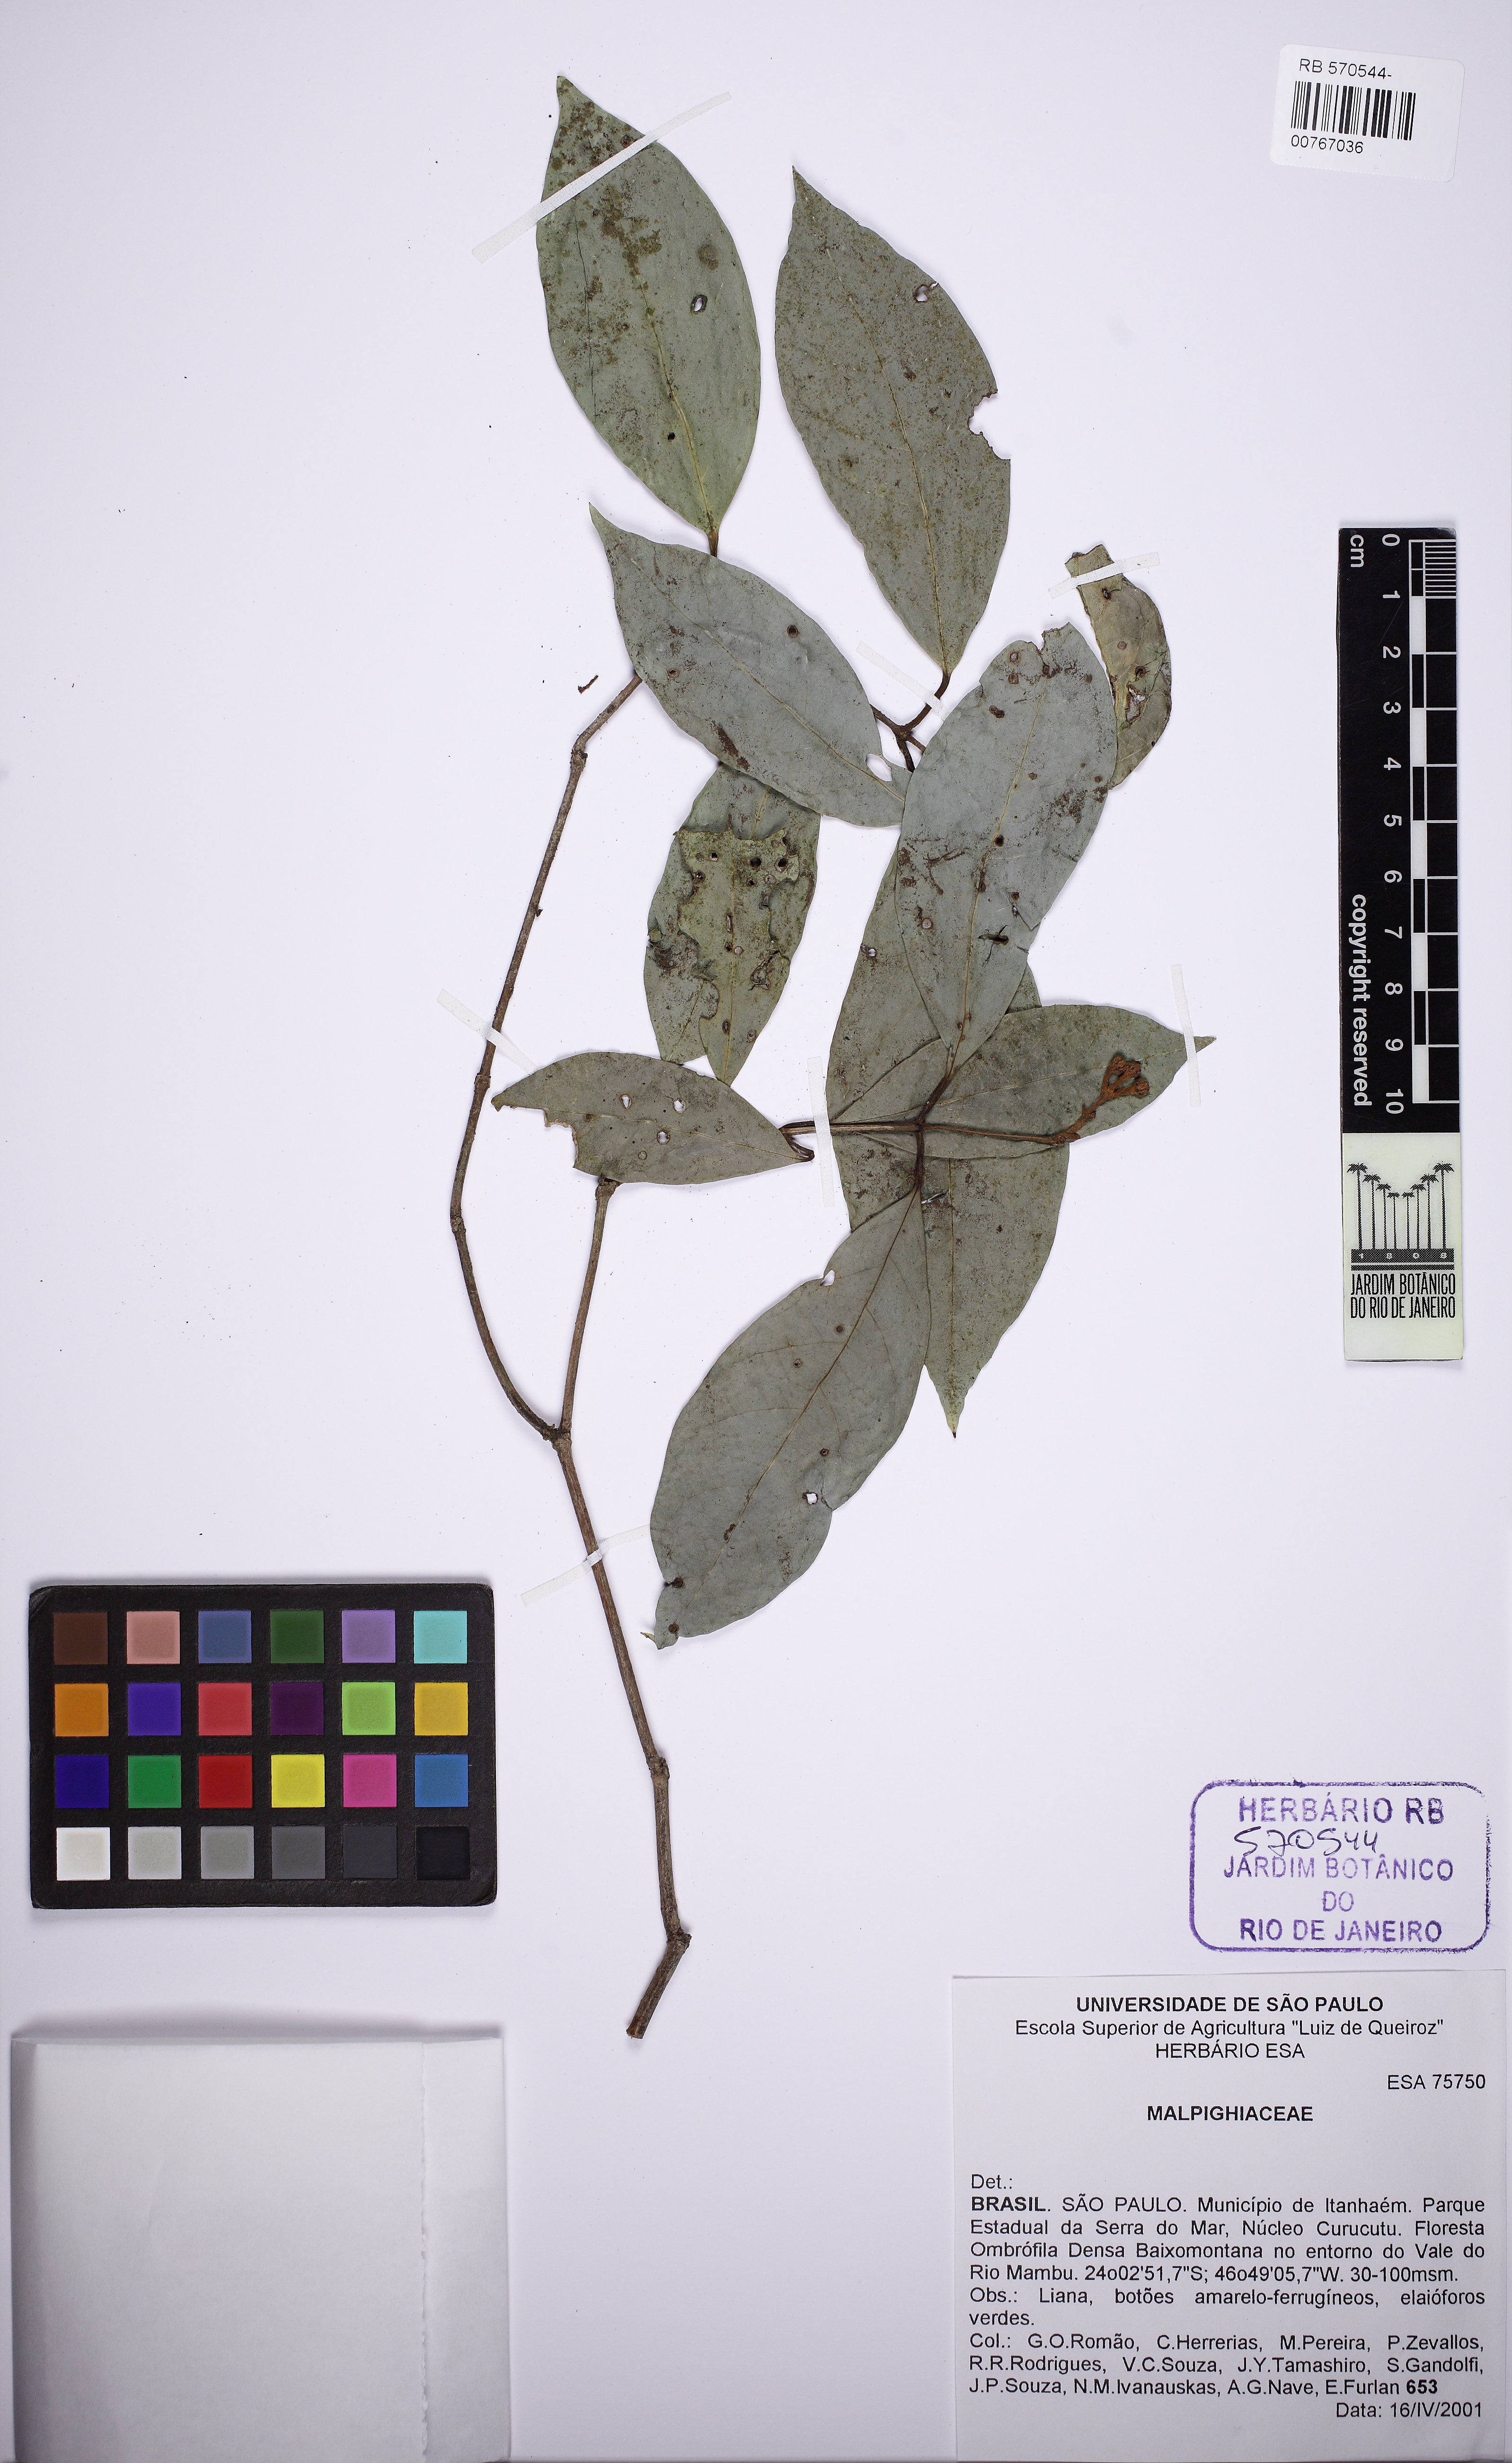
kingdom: Plantae
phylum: Tracheophyta
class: Magnoliopsida
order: Malpighiales
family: Malpighiaceae
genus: Heteropterys
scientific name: Heteropterys
